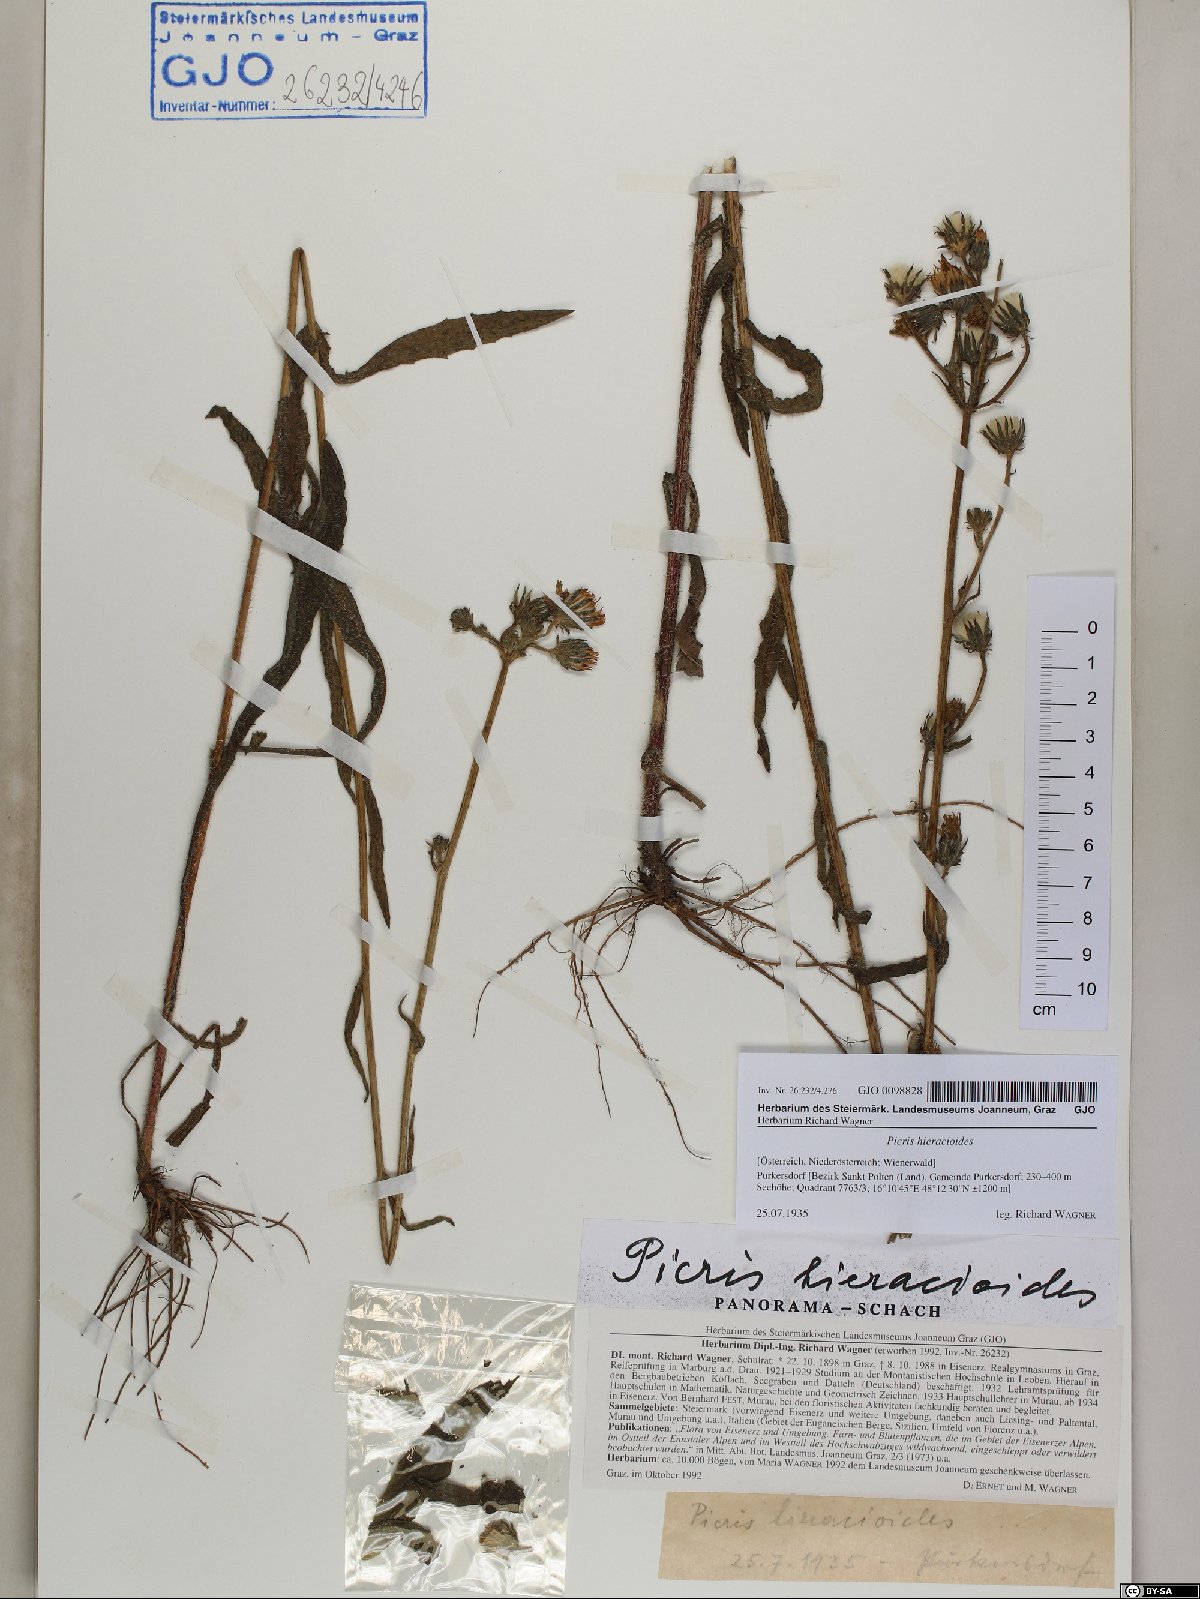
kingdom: Plantae
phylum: Tracheophyta
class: Magnoliopsida
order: Asterales
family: Asteraceae
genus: Picris
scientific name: Picris hieracioides
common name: Hawkweed oxtongue
